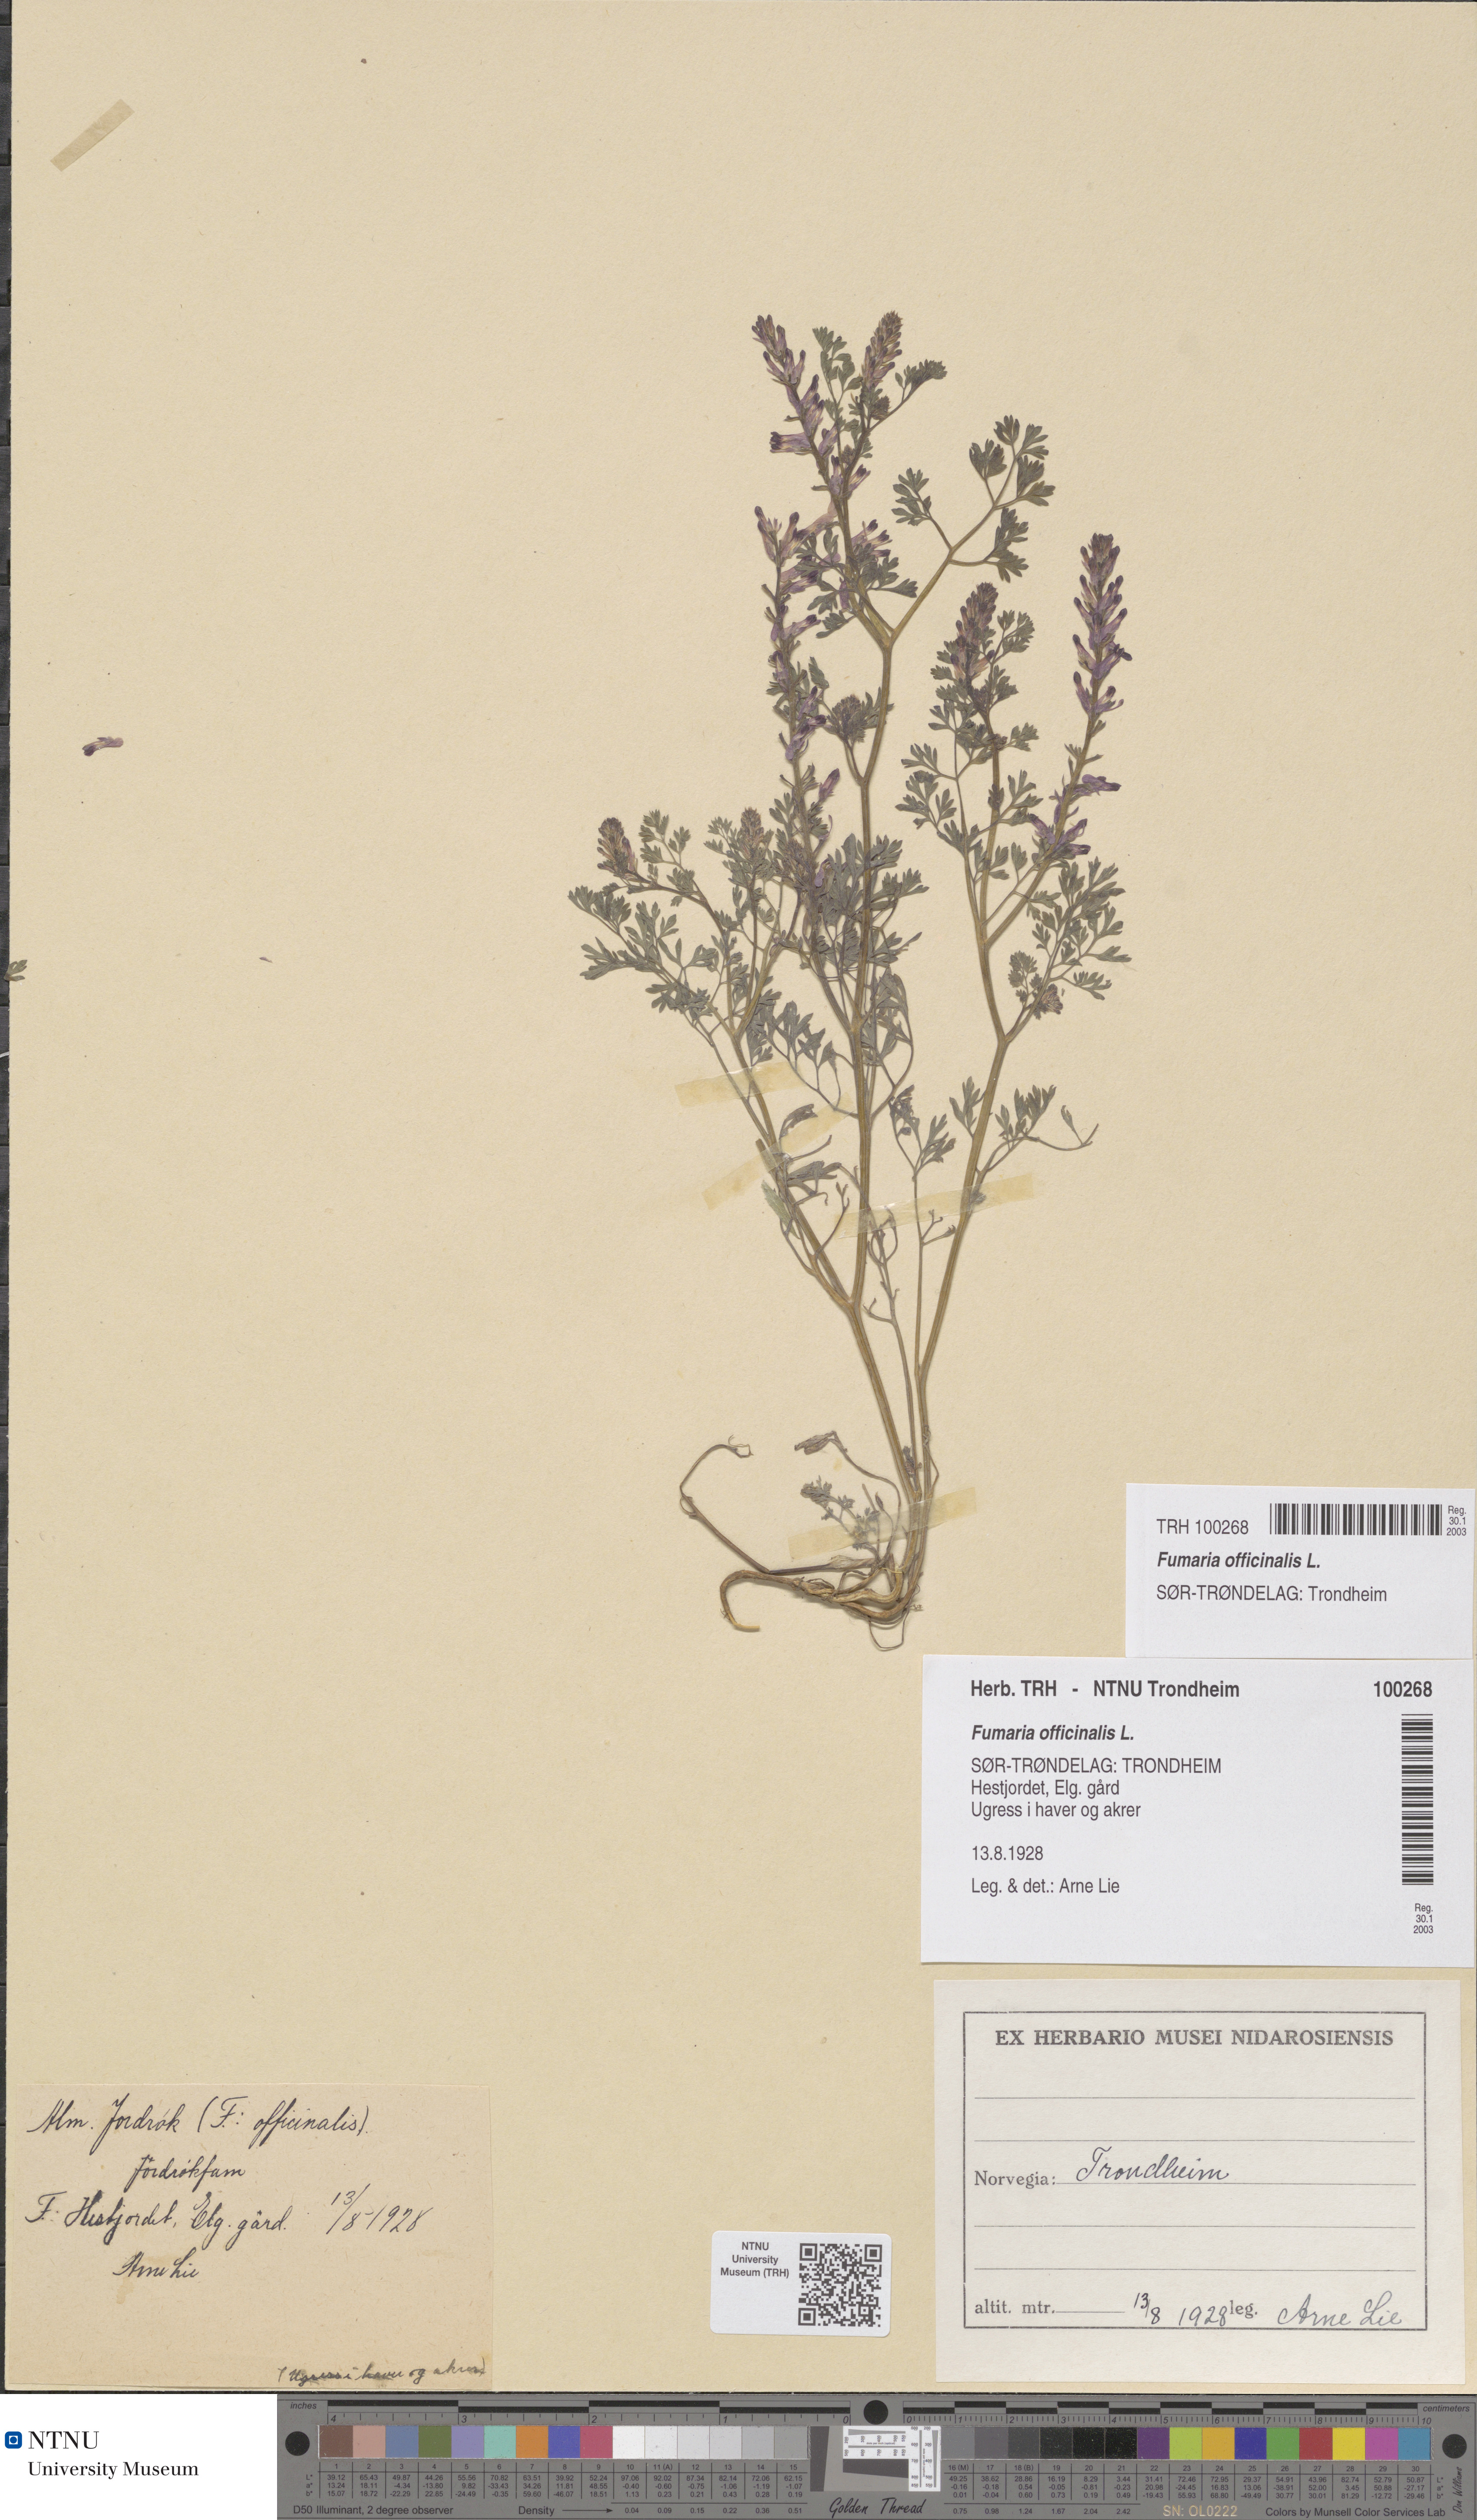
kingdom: Plantae
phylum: Tracheophyta
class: Magnoliopsida
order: Ranunculales
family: Papaveraceae
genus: Fumaria
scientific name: Fumaria officinalis
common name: Common fumitory
